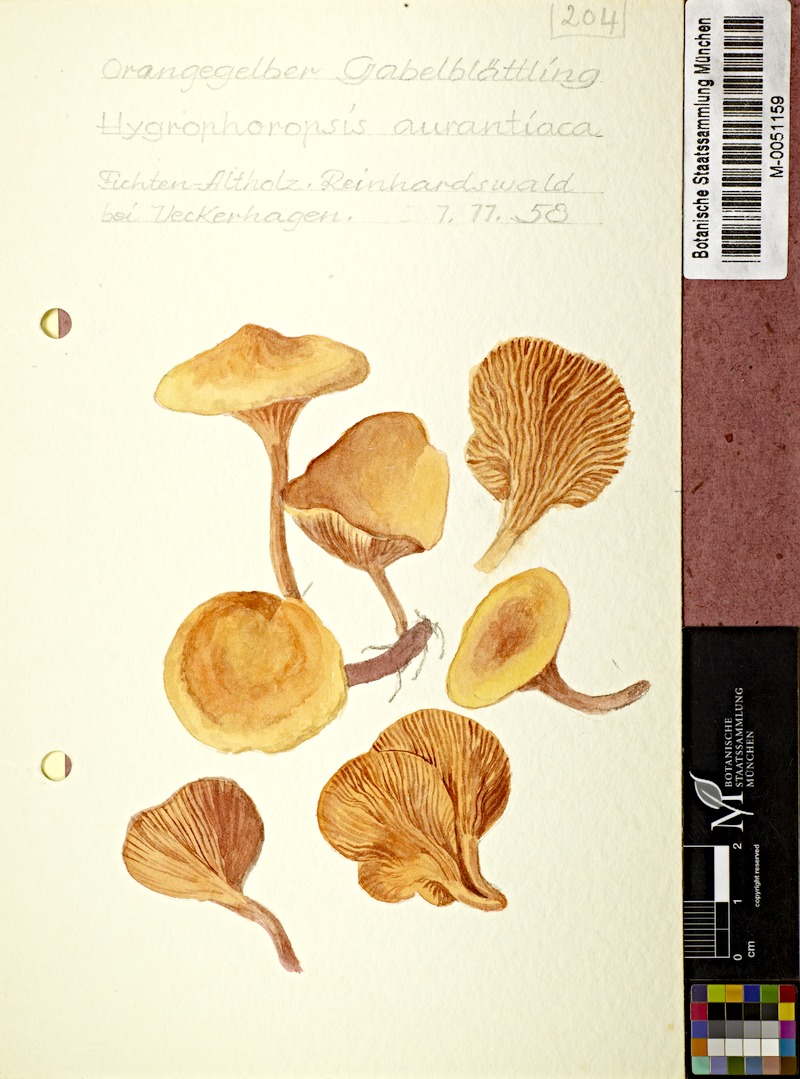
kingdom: Fungi
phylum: Basidiomycota
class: Agaricomycetes
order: Boletales
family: Hygrophoropsidaceae
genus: Hygrophoropsis
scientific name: Hygrophoropsis aurantiaca
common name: False chanterelle
